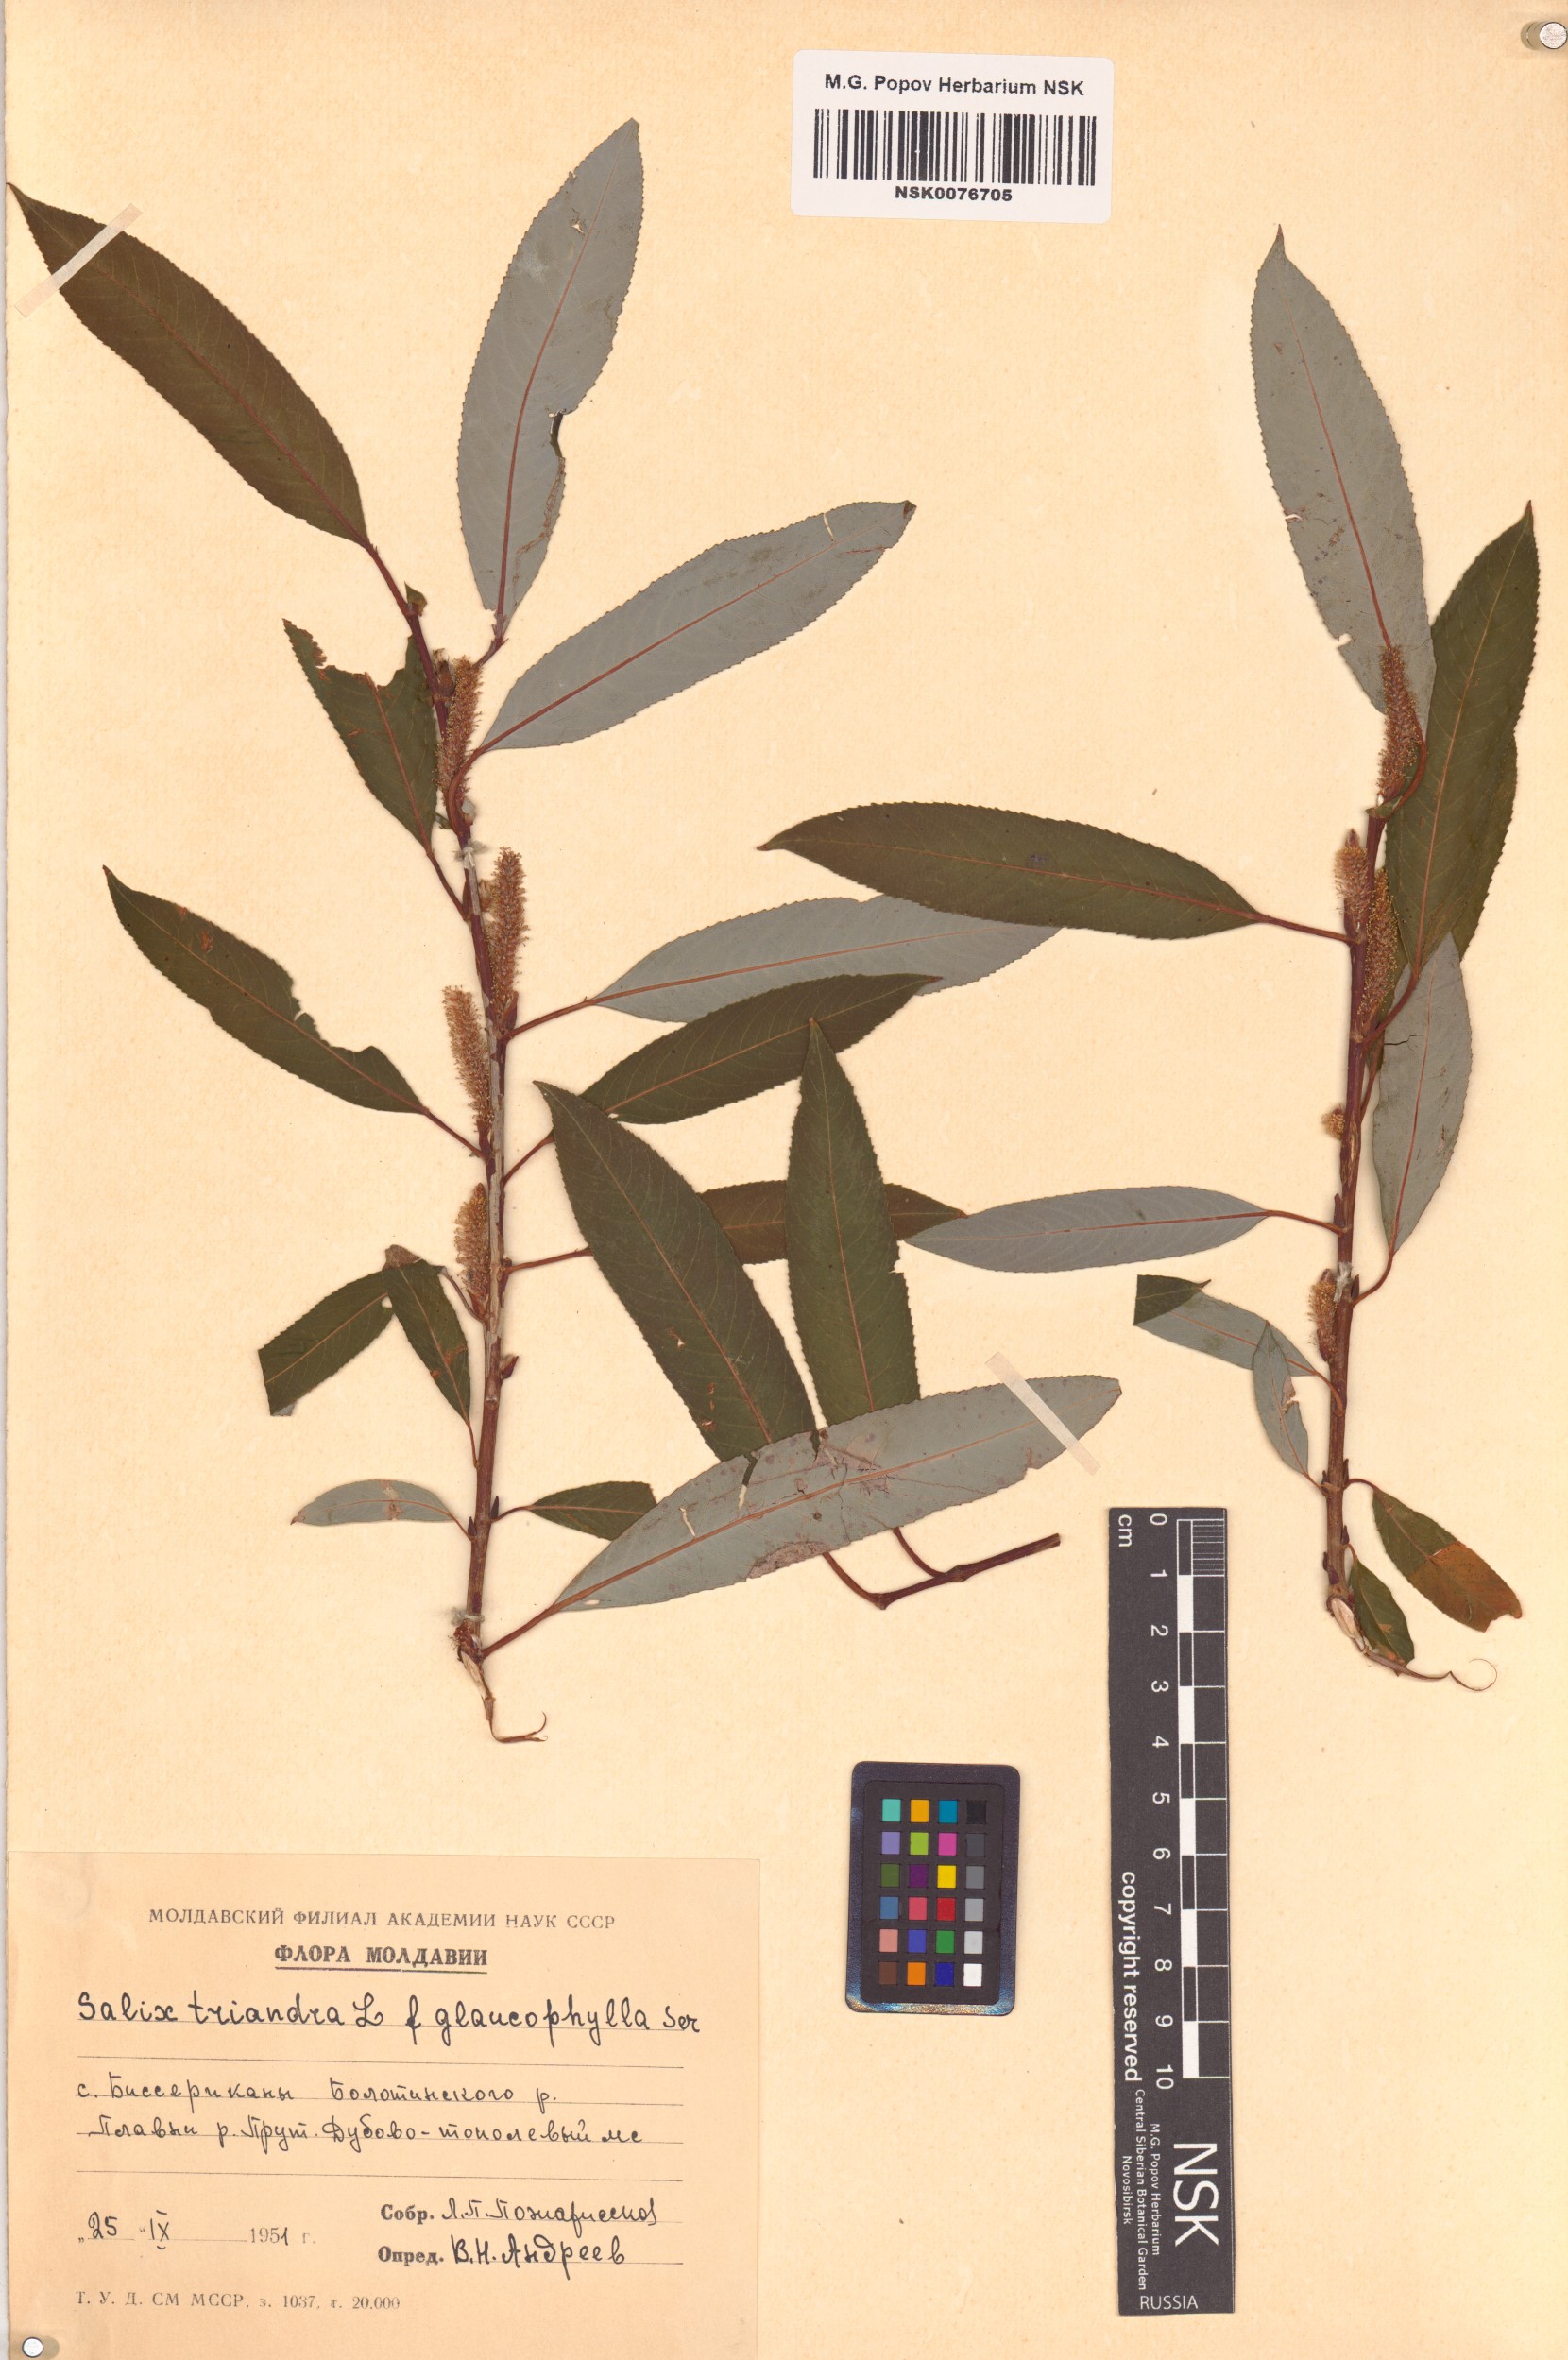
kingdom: Plantae
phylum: Tracheophyta
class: Magnoliopsida
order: Malpighiales
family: Salicaceae
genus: Salix
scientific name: Salix triandra
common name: Almond willow
